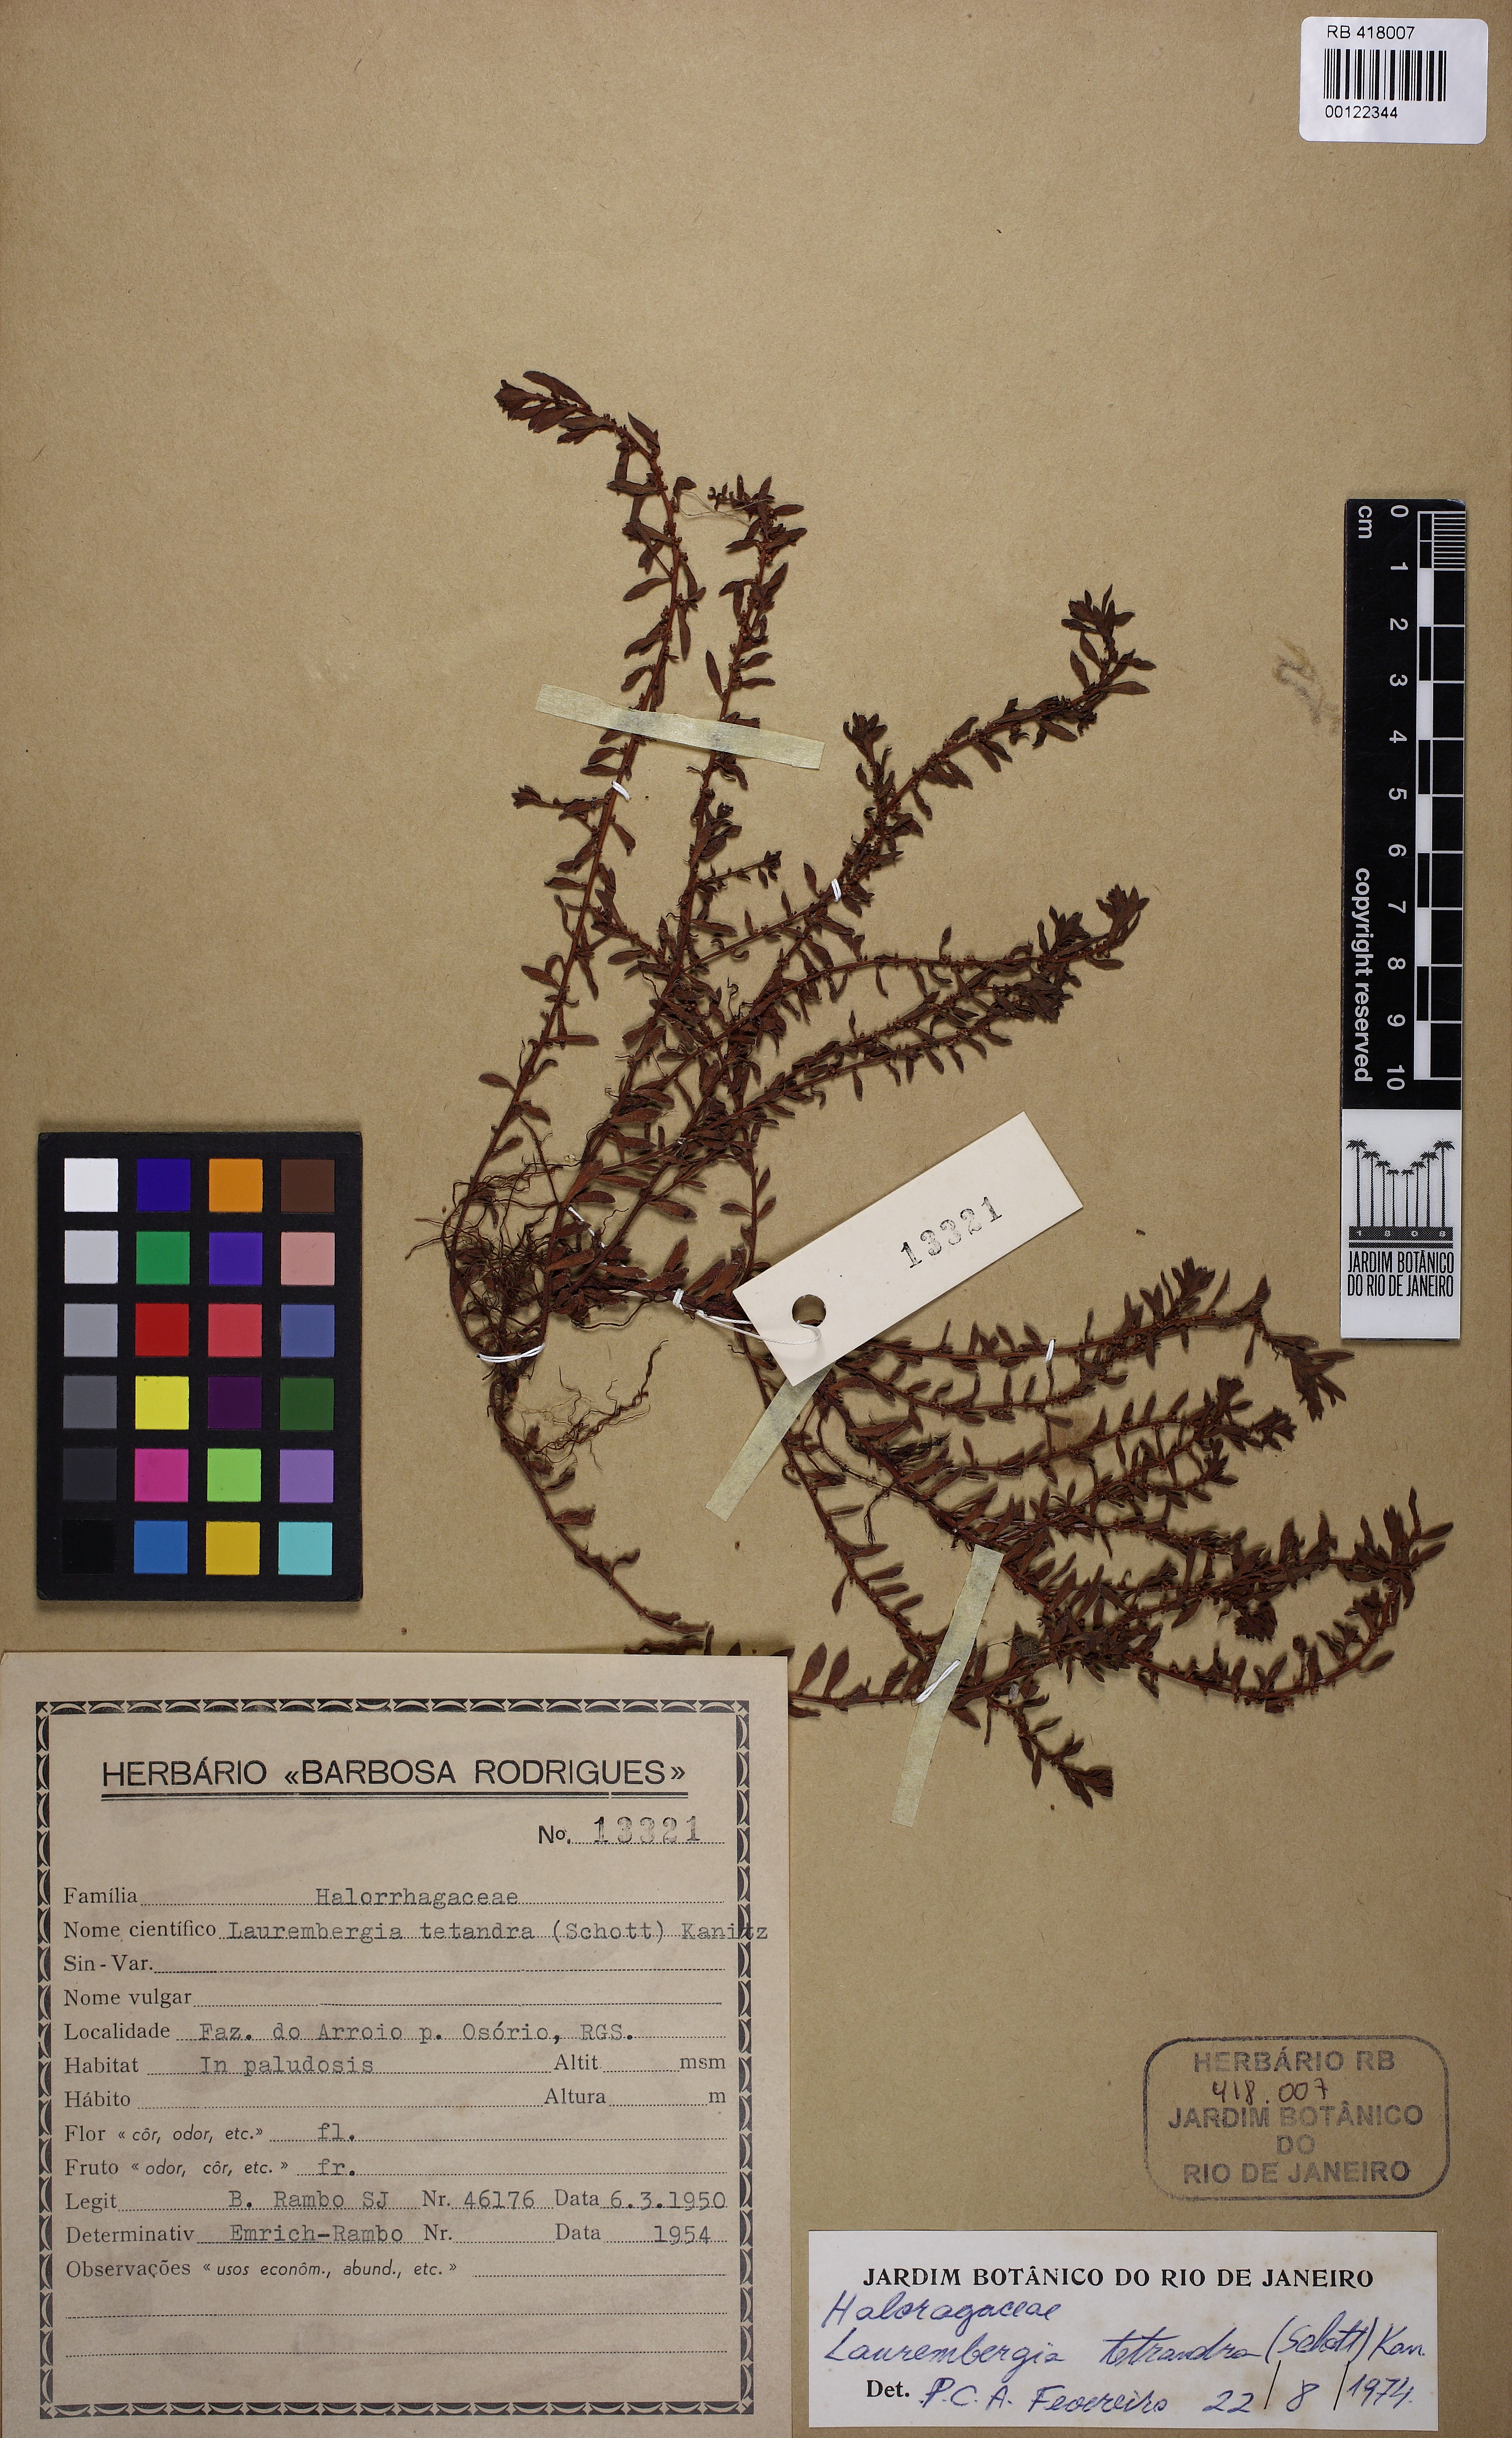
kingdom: Plantae
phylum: Tracheophyta
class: Magnoliopsida
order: Saxifragales
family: Haloragaceae
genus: Laurembergia
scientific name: Laurembergia tetrandra
